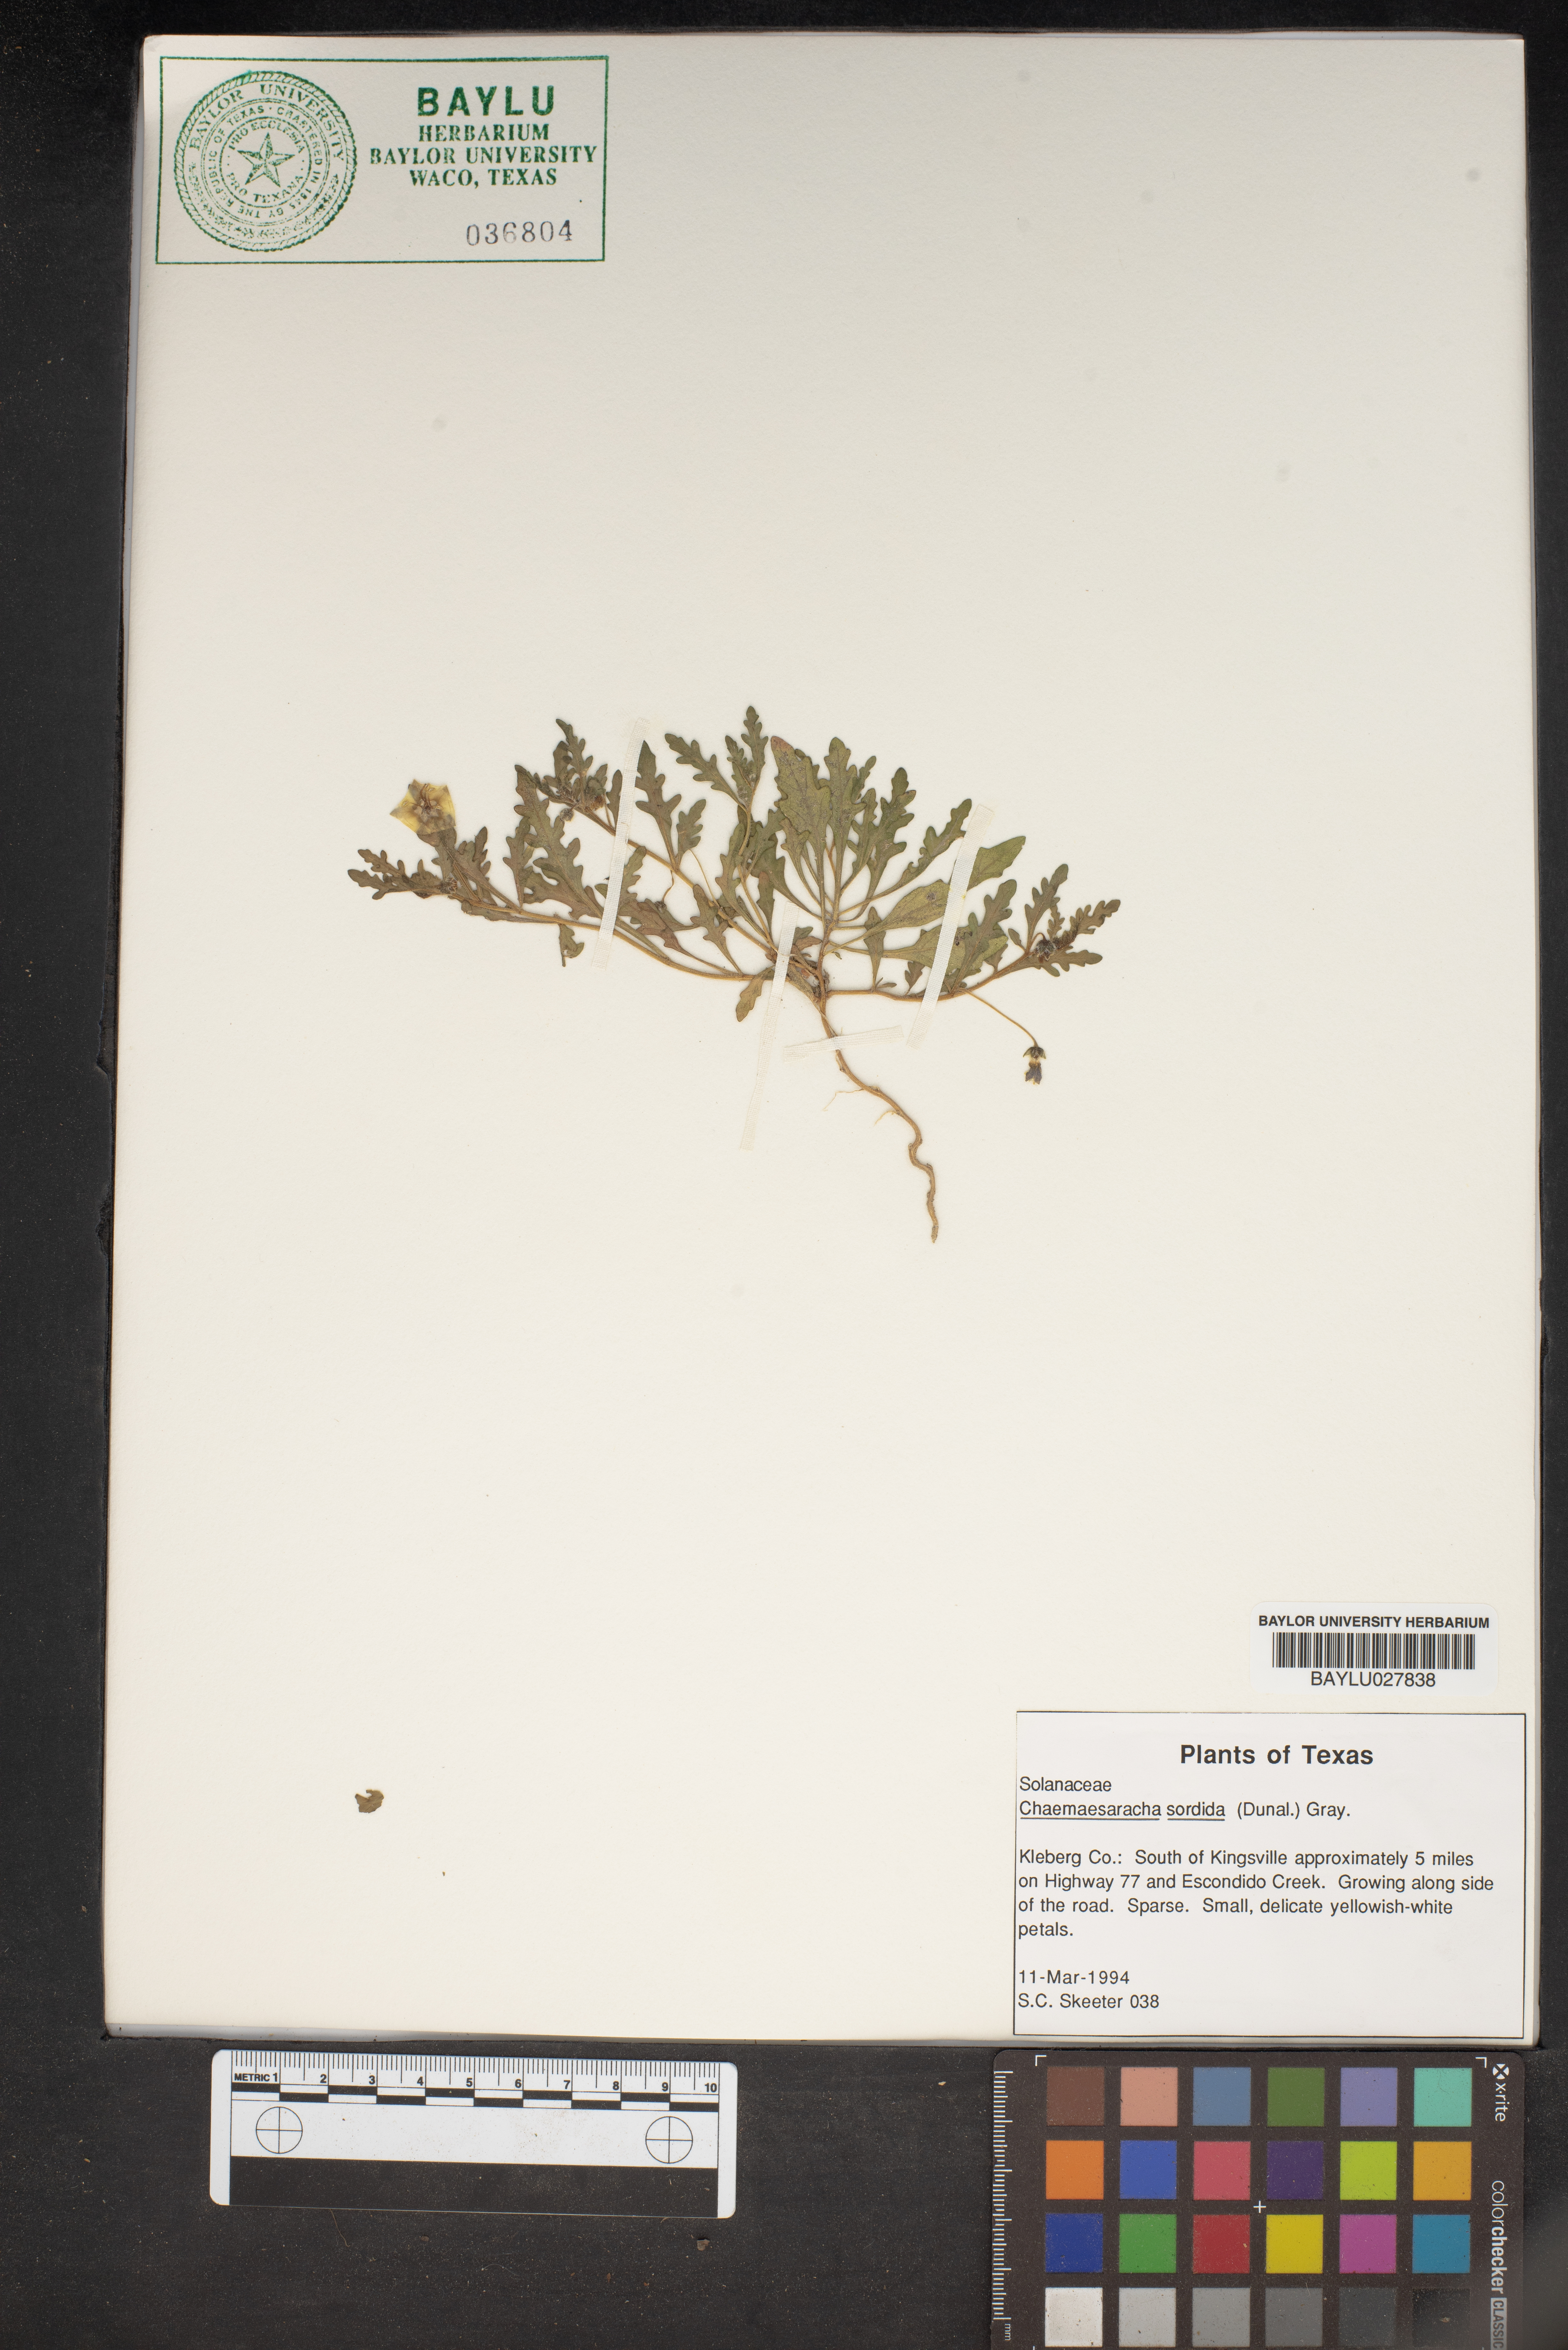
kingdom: Plantae
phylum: Tracheophyta
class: Magnoliopsida
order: Solanales
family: Solanaceae
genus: Chamaesaracha
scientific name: Chamaesaracha sordida
